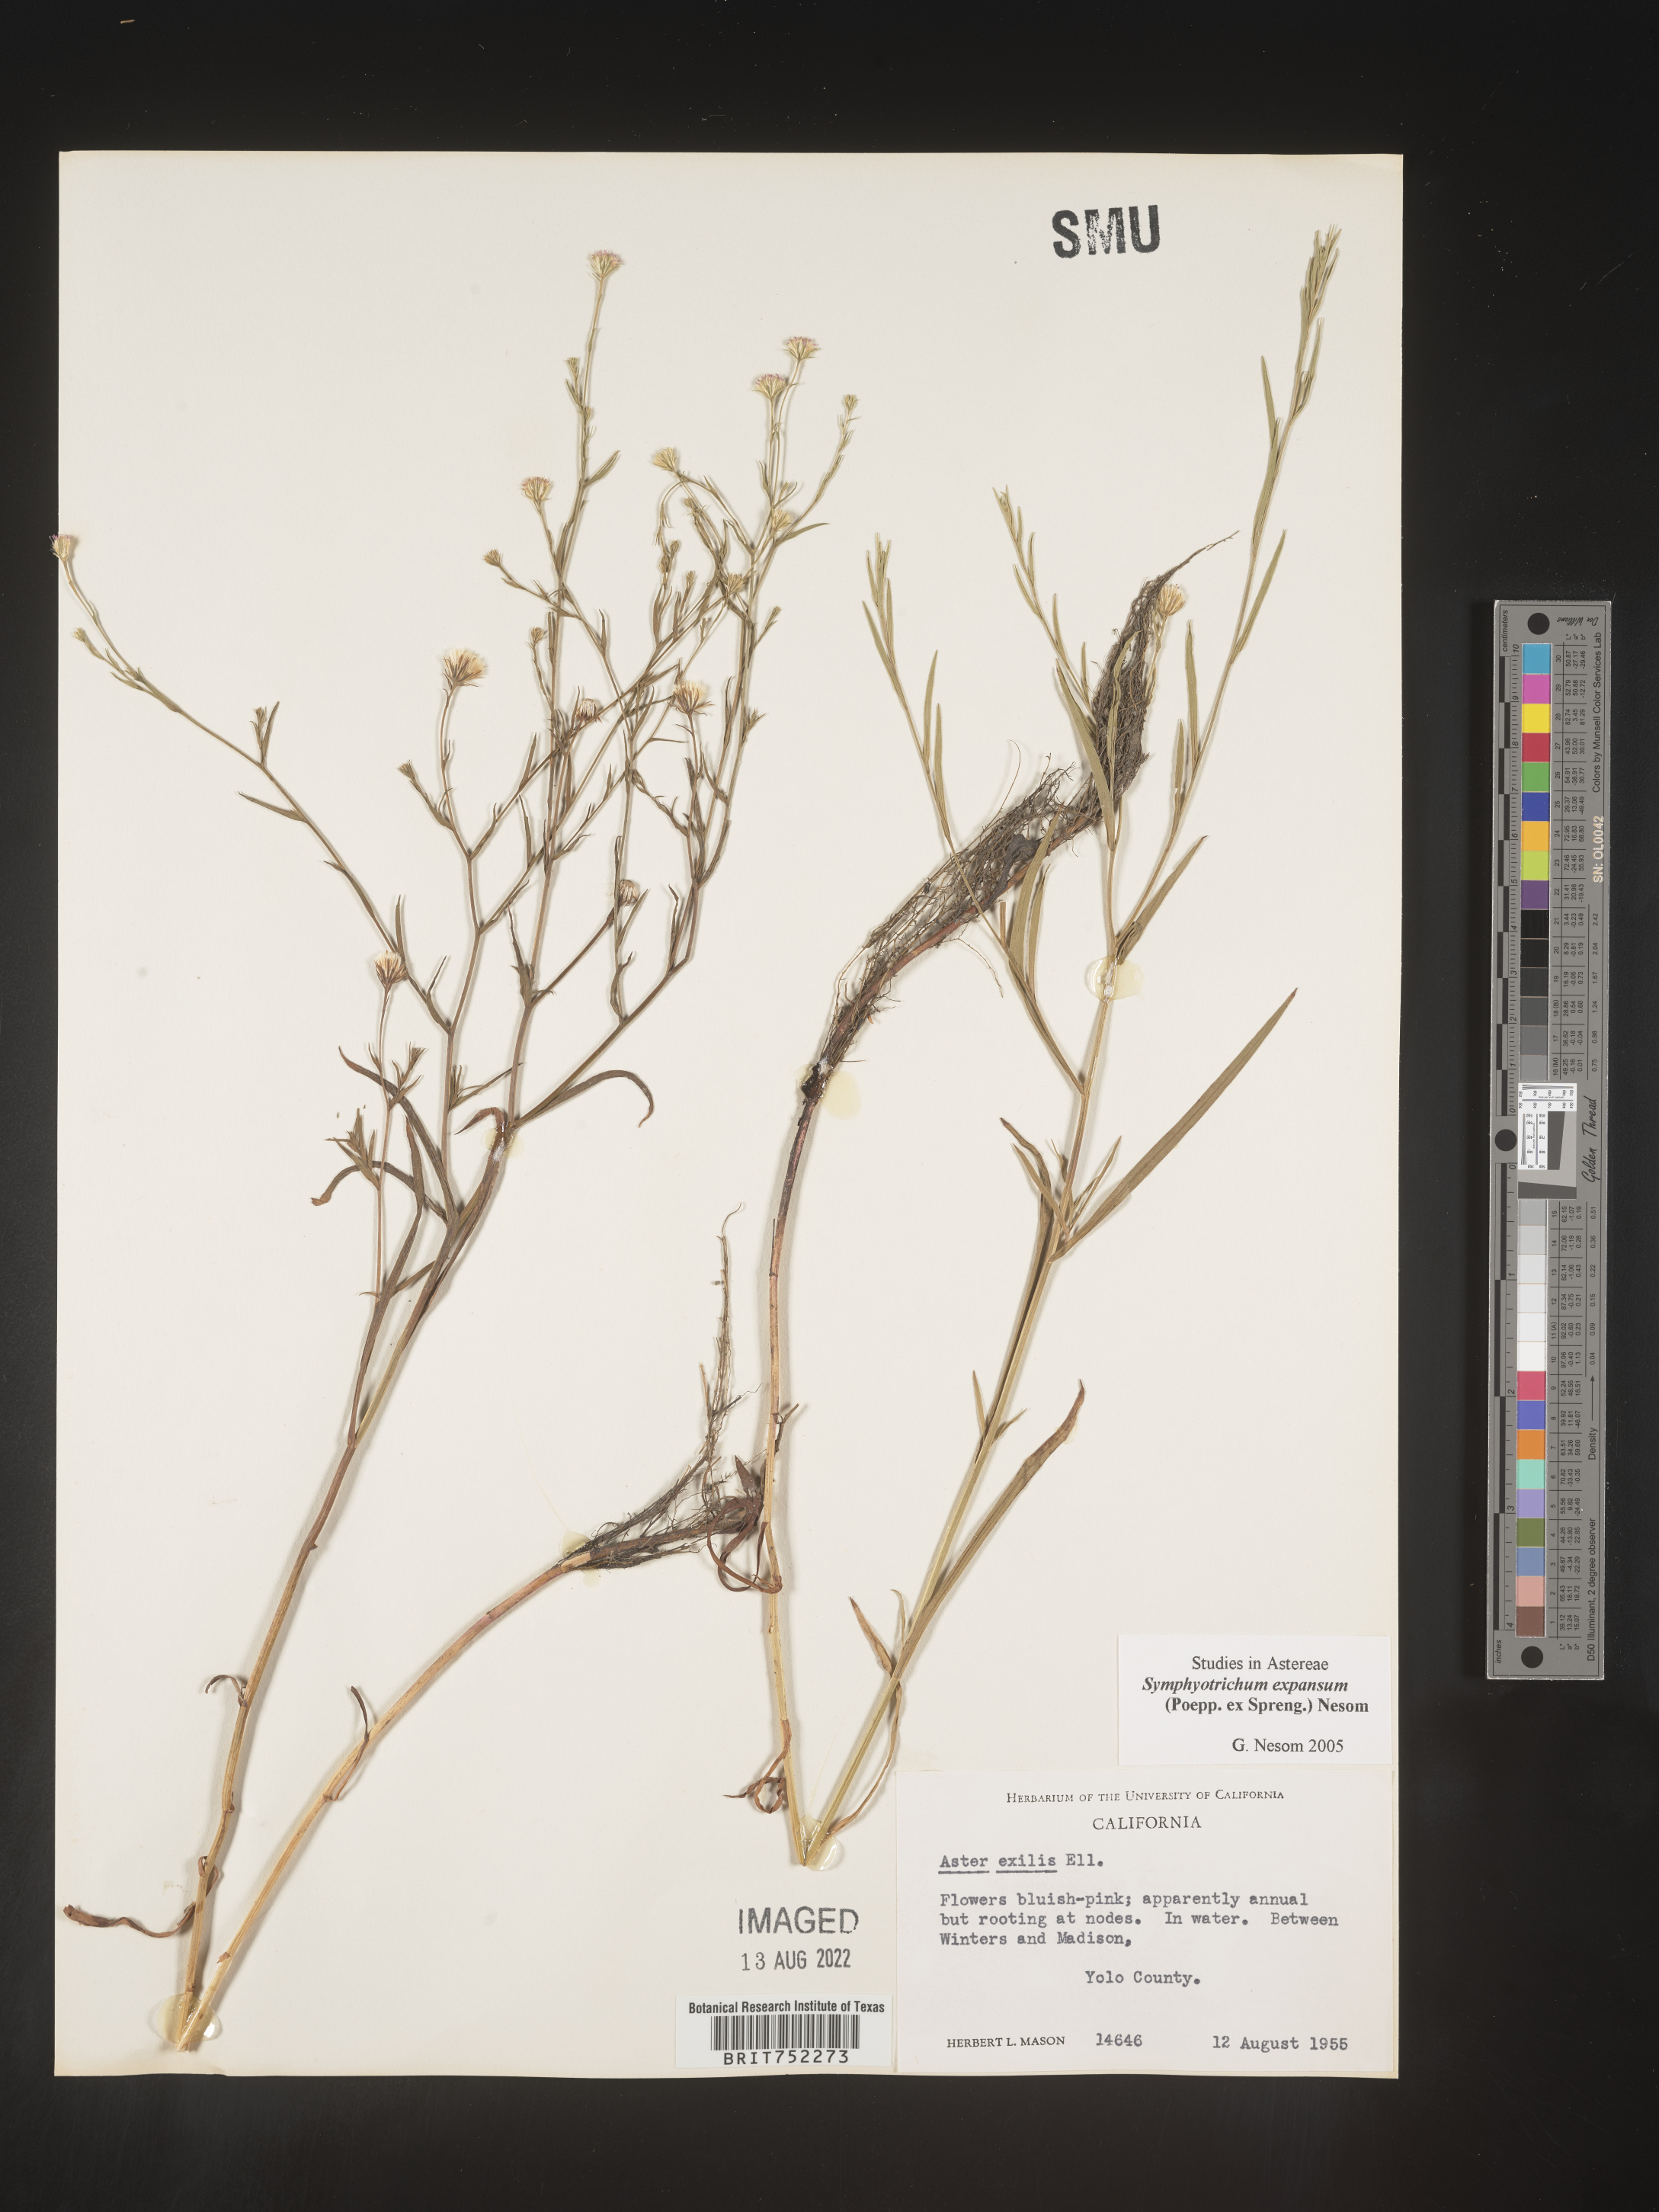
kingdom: Plantae
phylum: Tracheophyta
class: Magnoliopsida
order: Asterales
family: Asteraceae
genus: Symphyotrichum
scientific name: Symphyotrichum expansum
